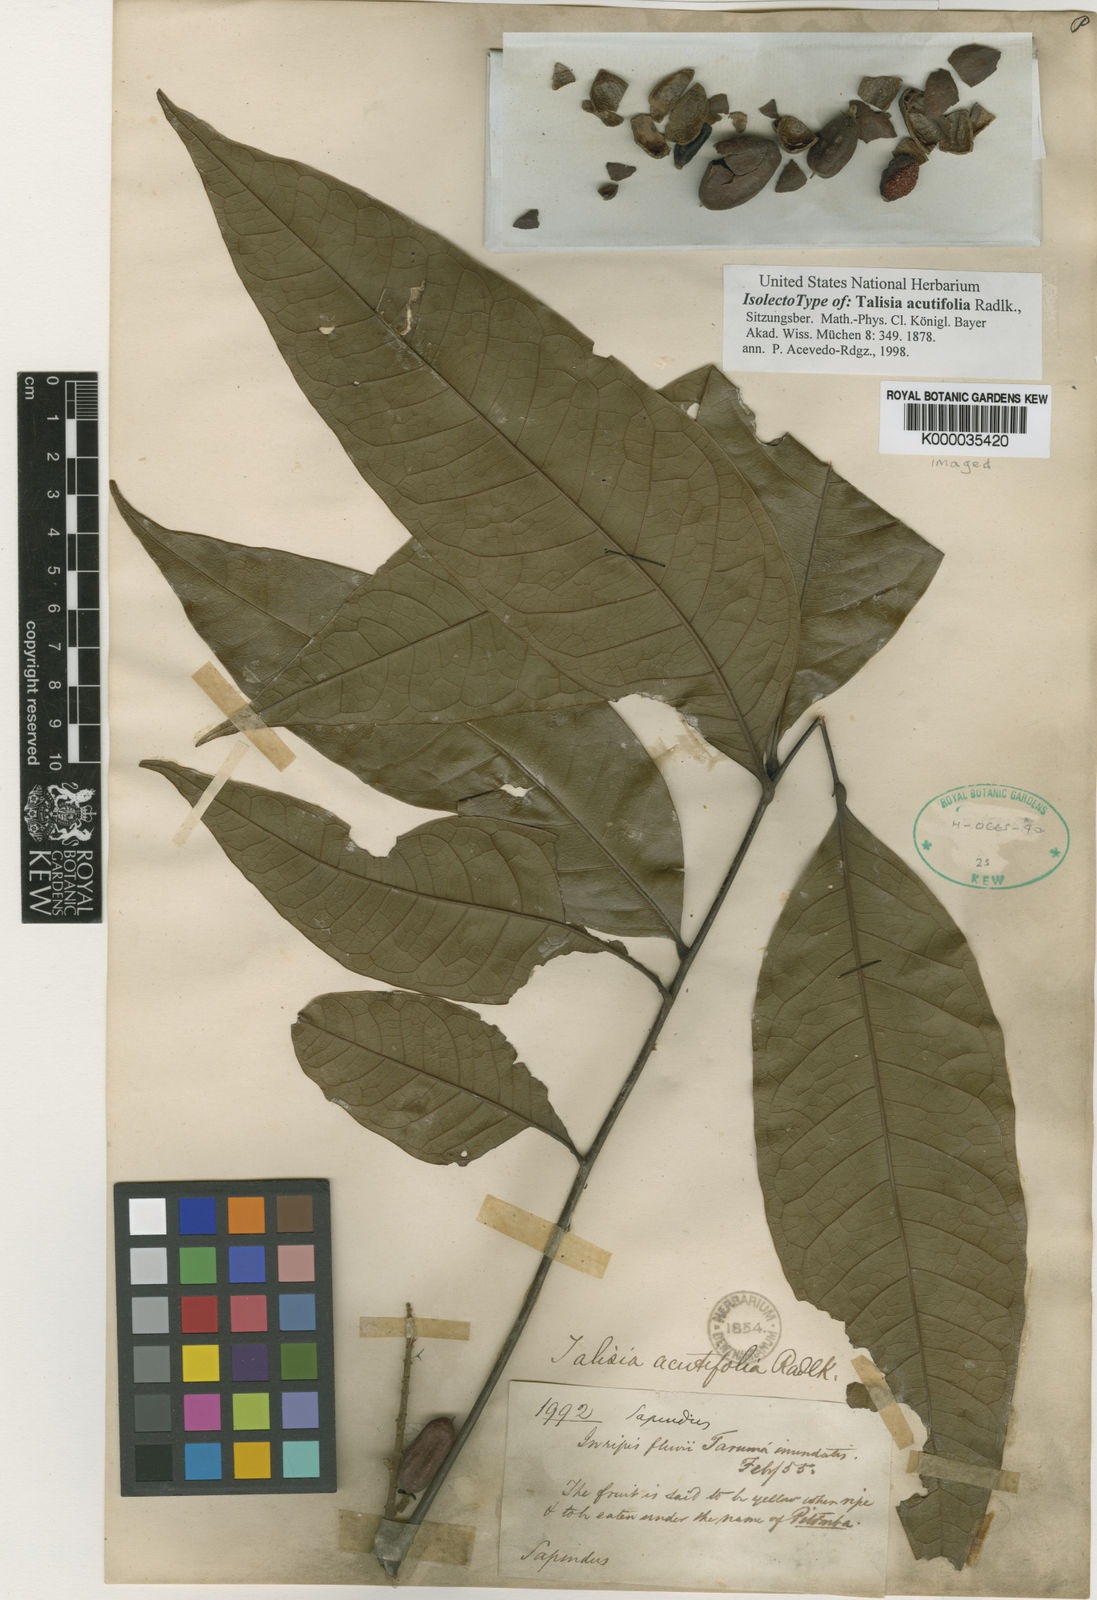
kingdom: Plantae
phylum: Tracheophyta
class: Magnoliopsida
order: Sapindales
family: Sapindaceae
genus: Talisia
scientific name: Talisia acutifolia
